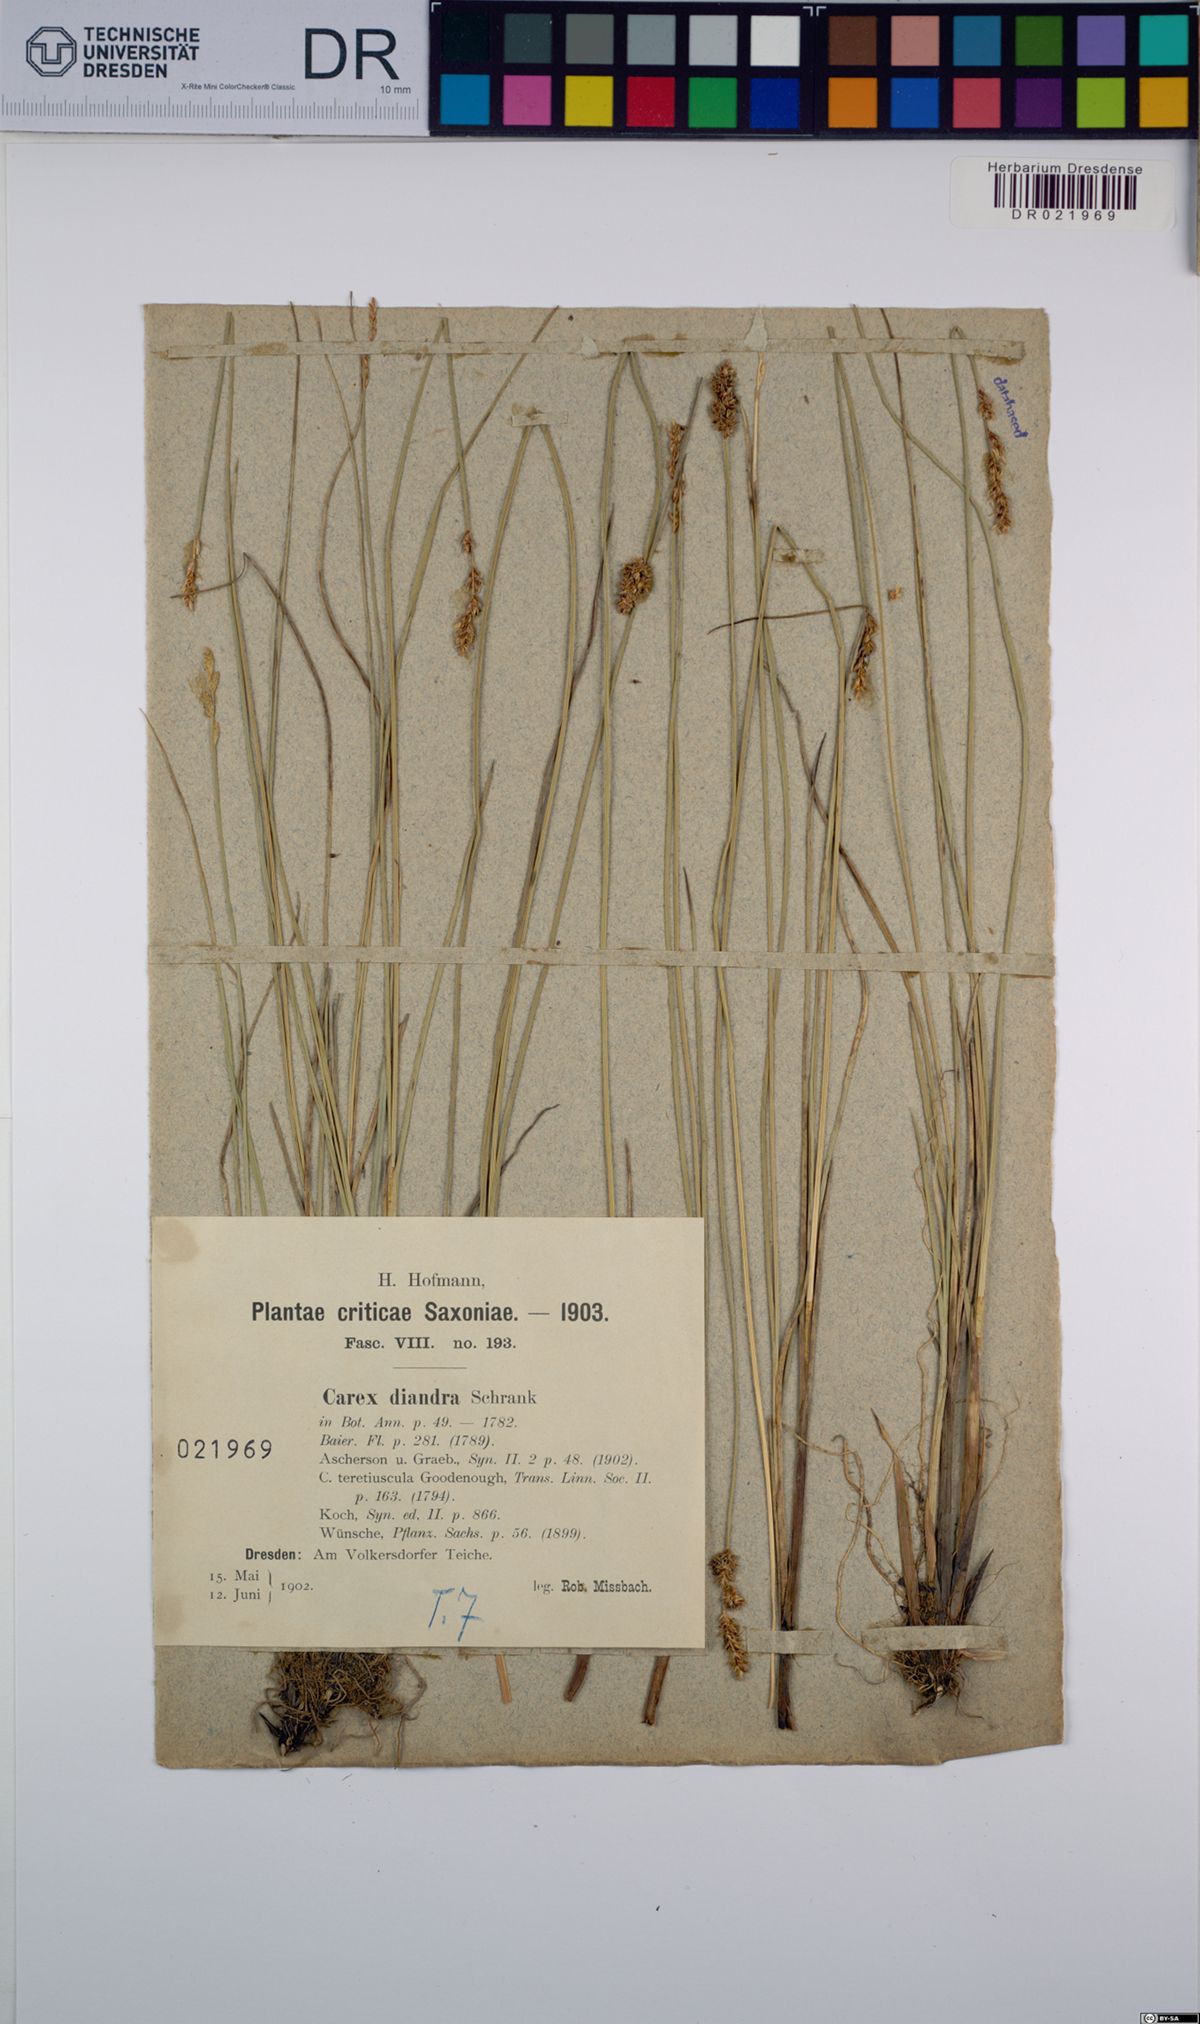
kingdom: Plantae
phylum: Tracheophyta
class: Liliopsida
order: Poales
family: Cyperaceae
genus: Carex
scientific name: Carex diandra
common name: Lesser tussock-sedge
